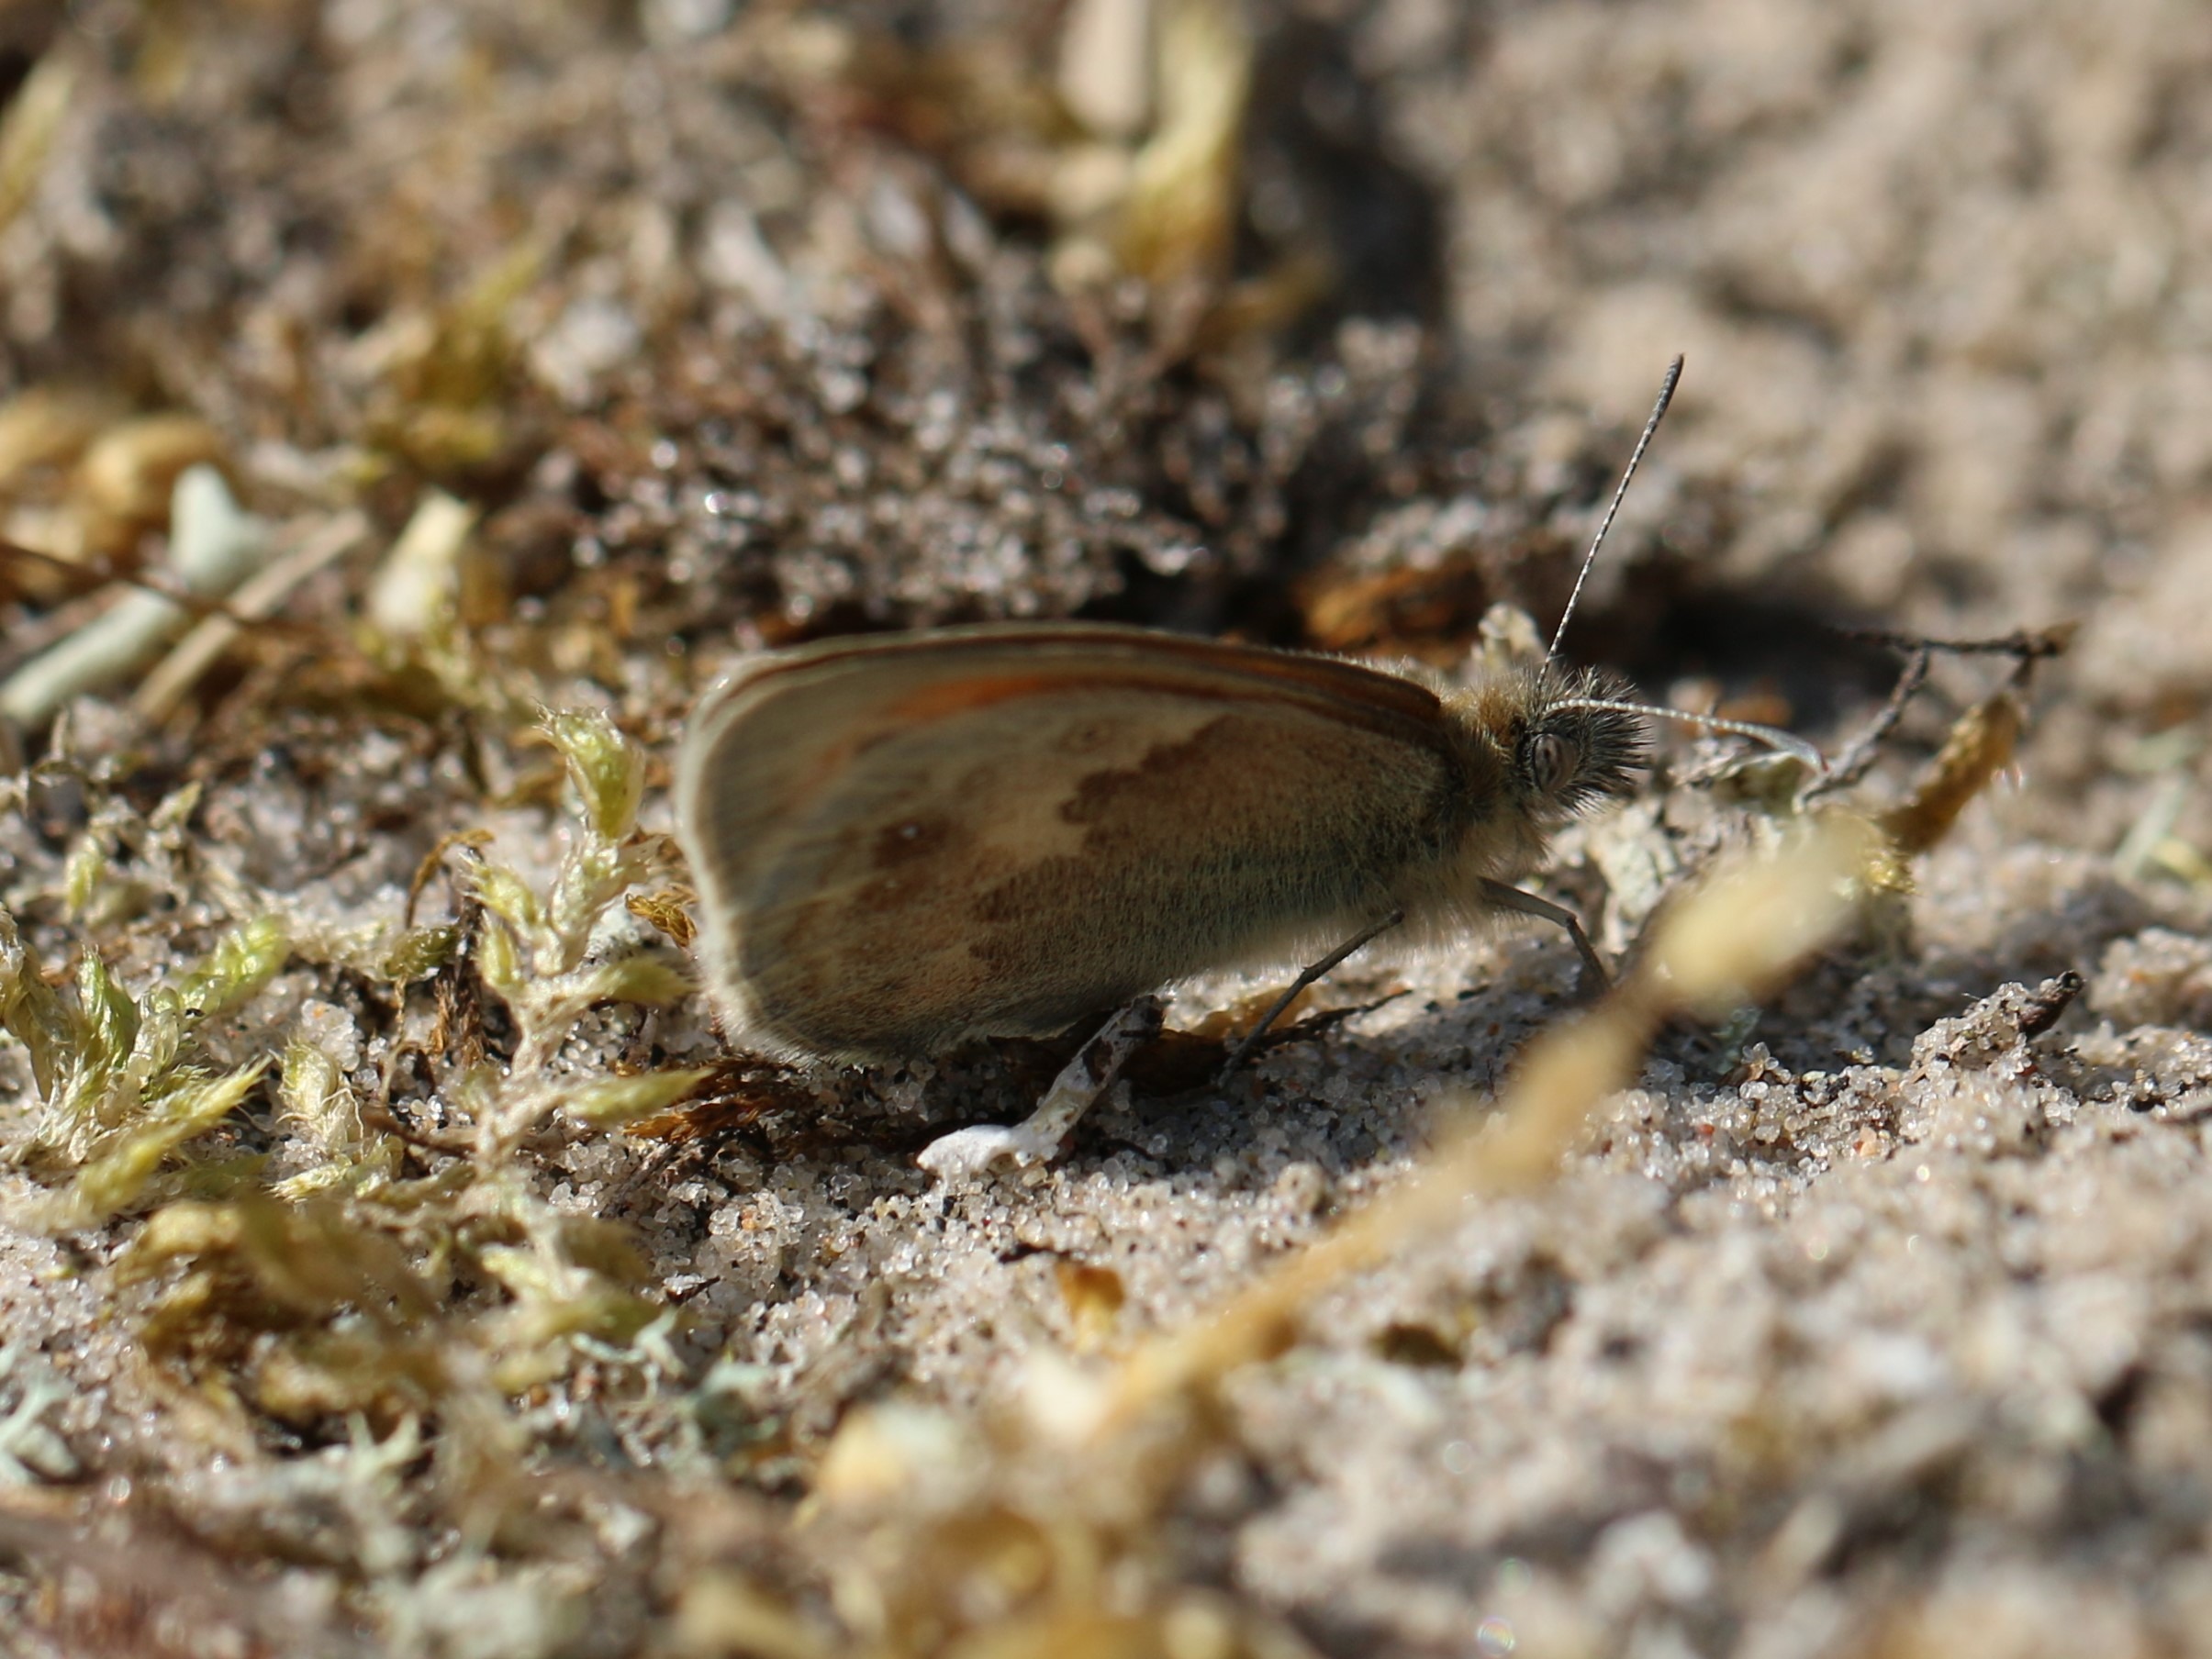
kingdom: Animalia
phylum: Arthropoda
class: Insecta
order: Lepidoptera
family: Nymphalidae
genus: Coenonympha
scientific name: Coenonympha pamphilus
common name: Okkergul randøje
